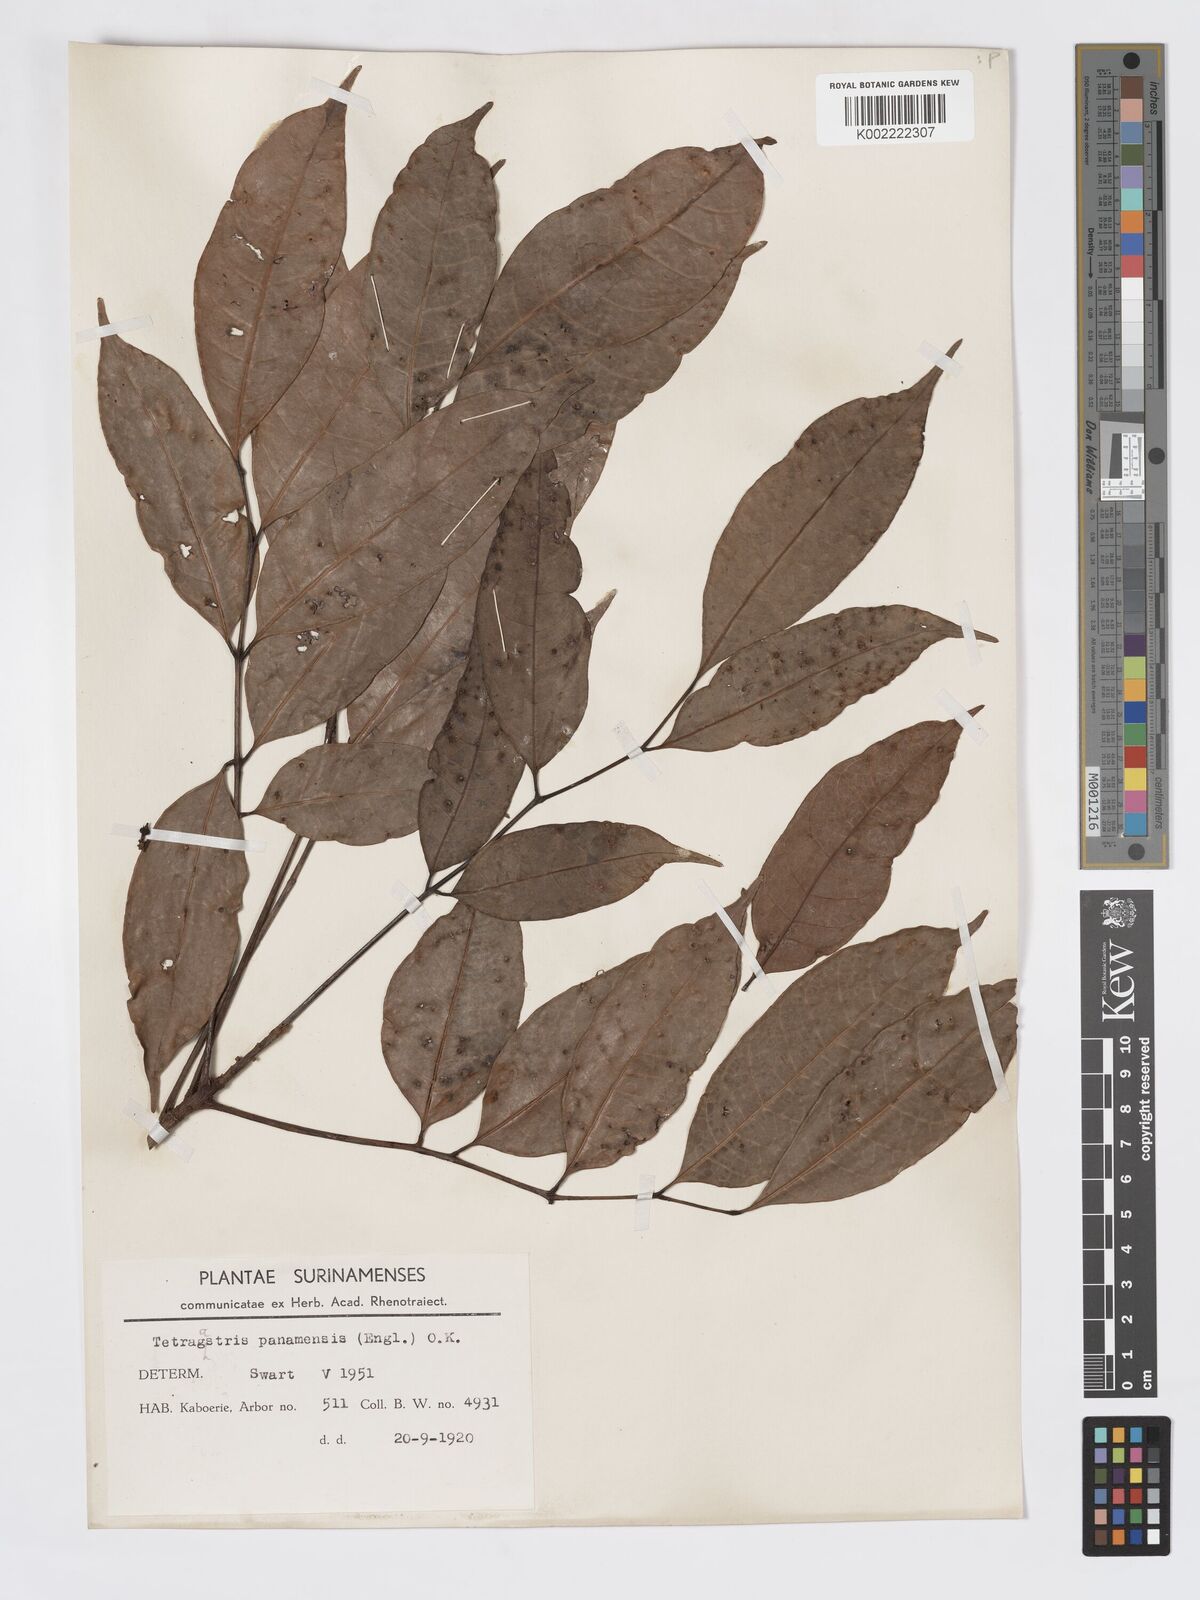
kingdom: Plantae
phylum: Tracheophyta
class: Magnoliopsida
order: Sapindales
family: Burseraceae
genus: Tetragastris
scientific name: Tetragastris panamensis
